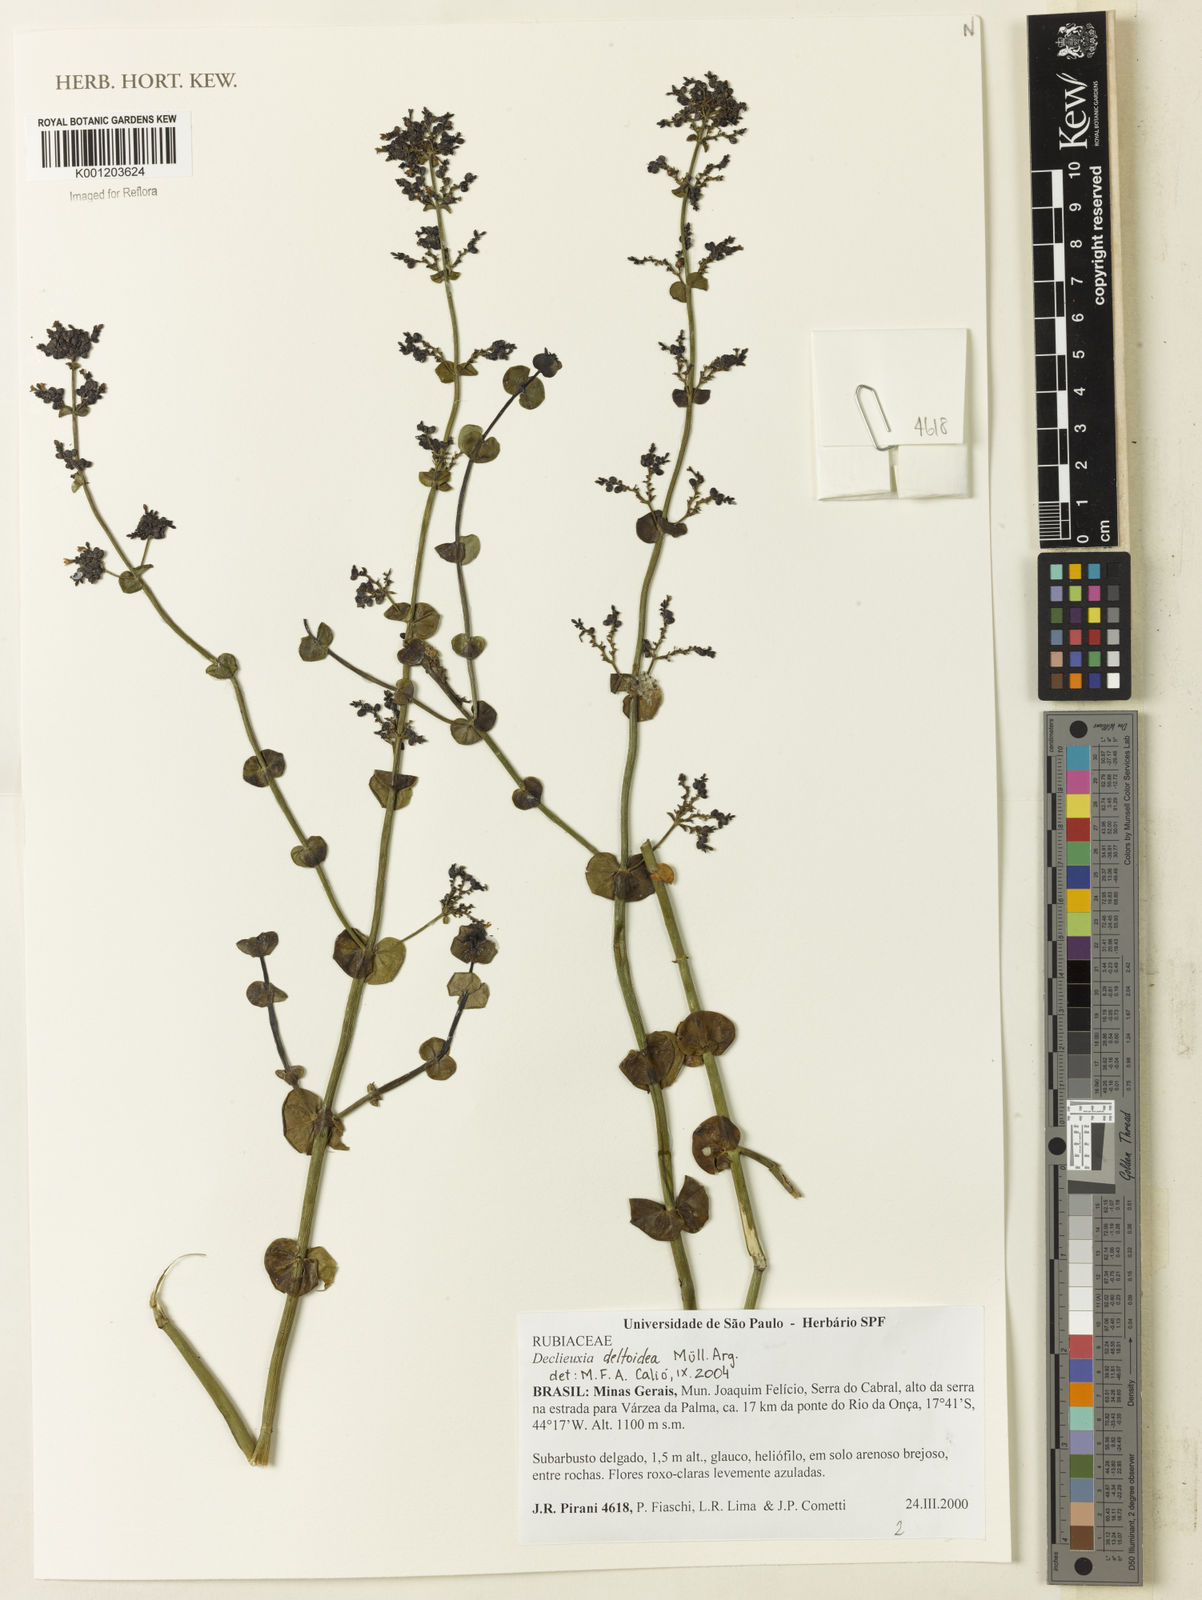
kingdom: Plantae
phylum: Tracheophyta
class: Magnoliopsida
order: Gentianales
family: Rubiaceae
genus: Declieuxia
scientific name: Declieuxia
